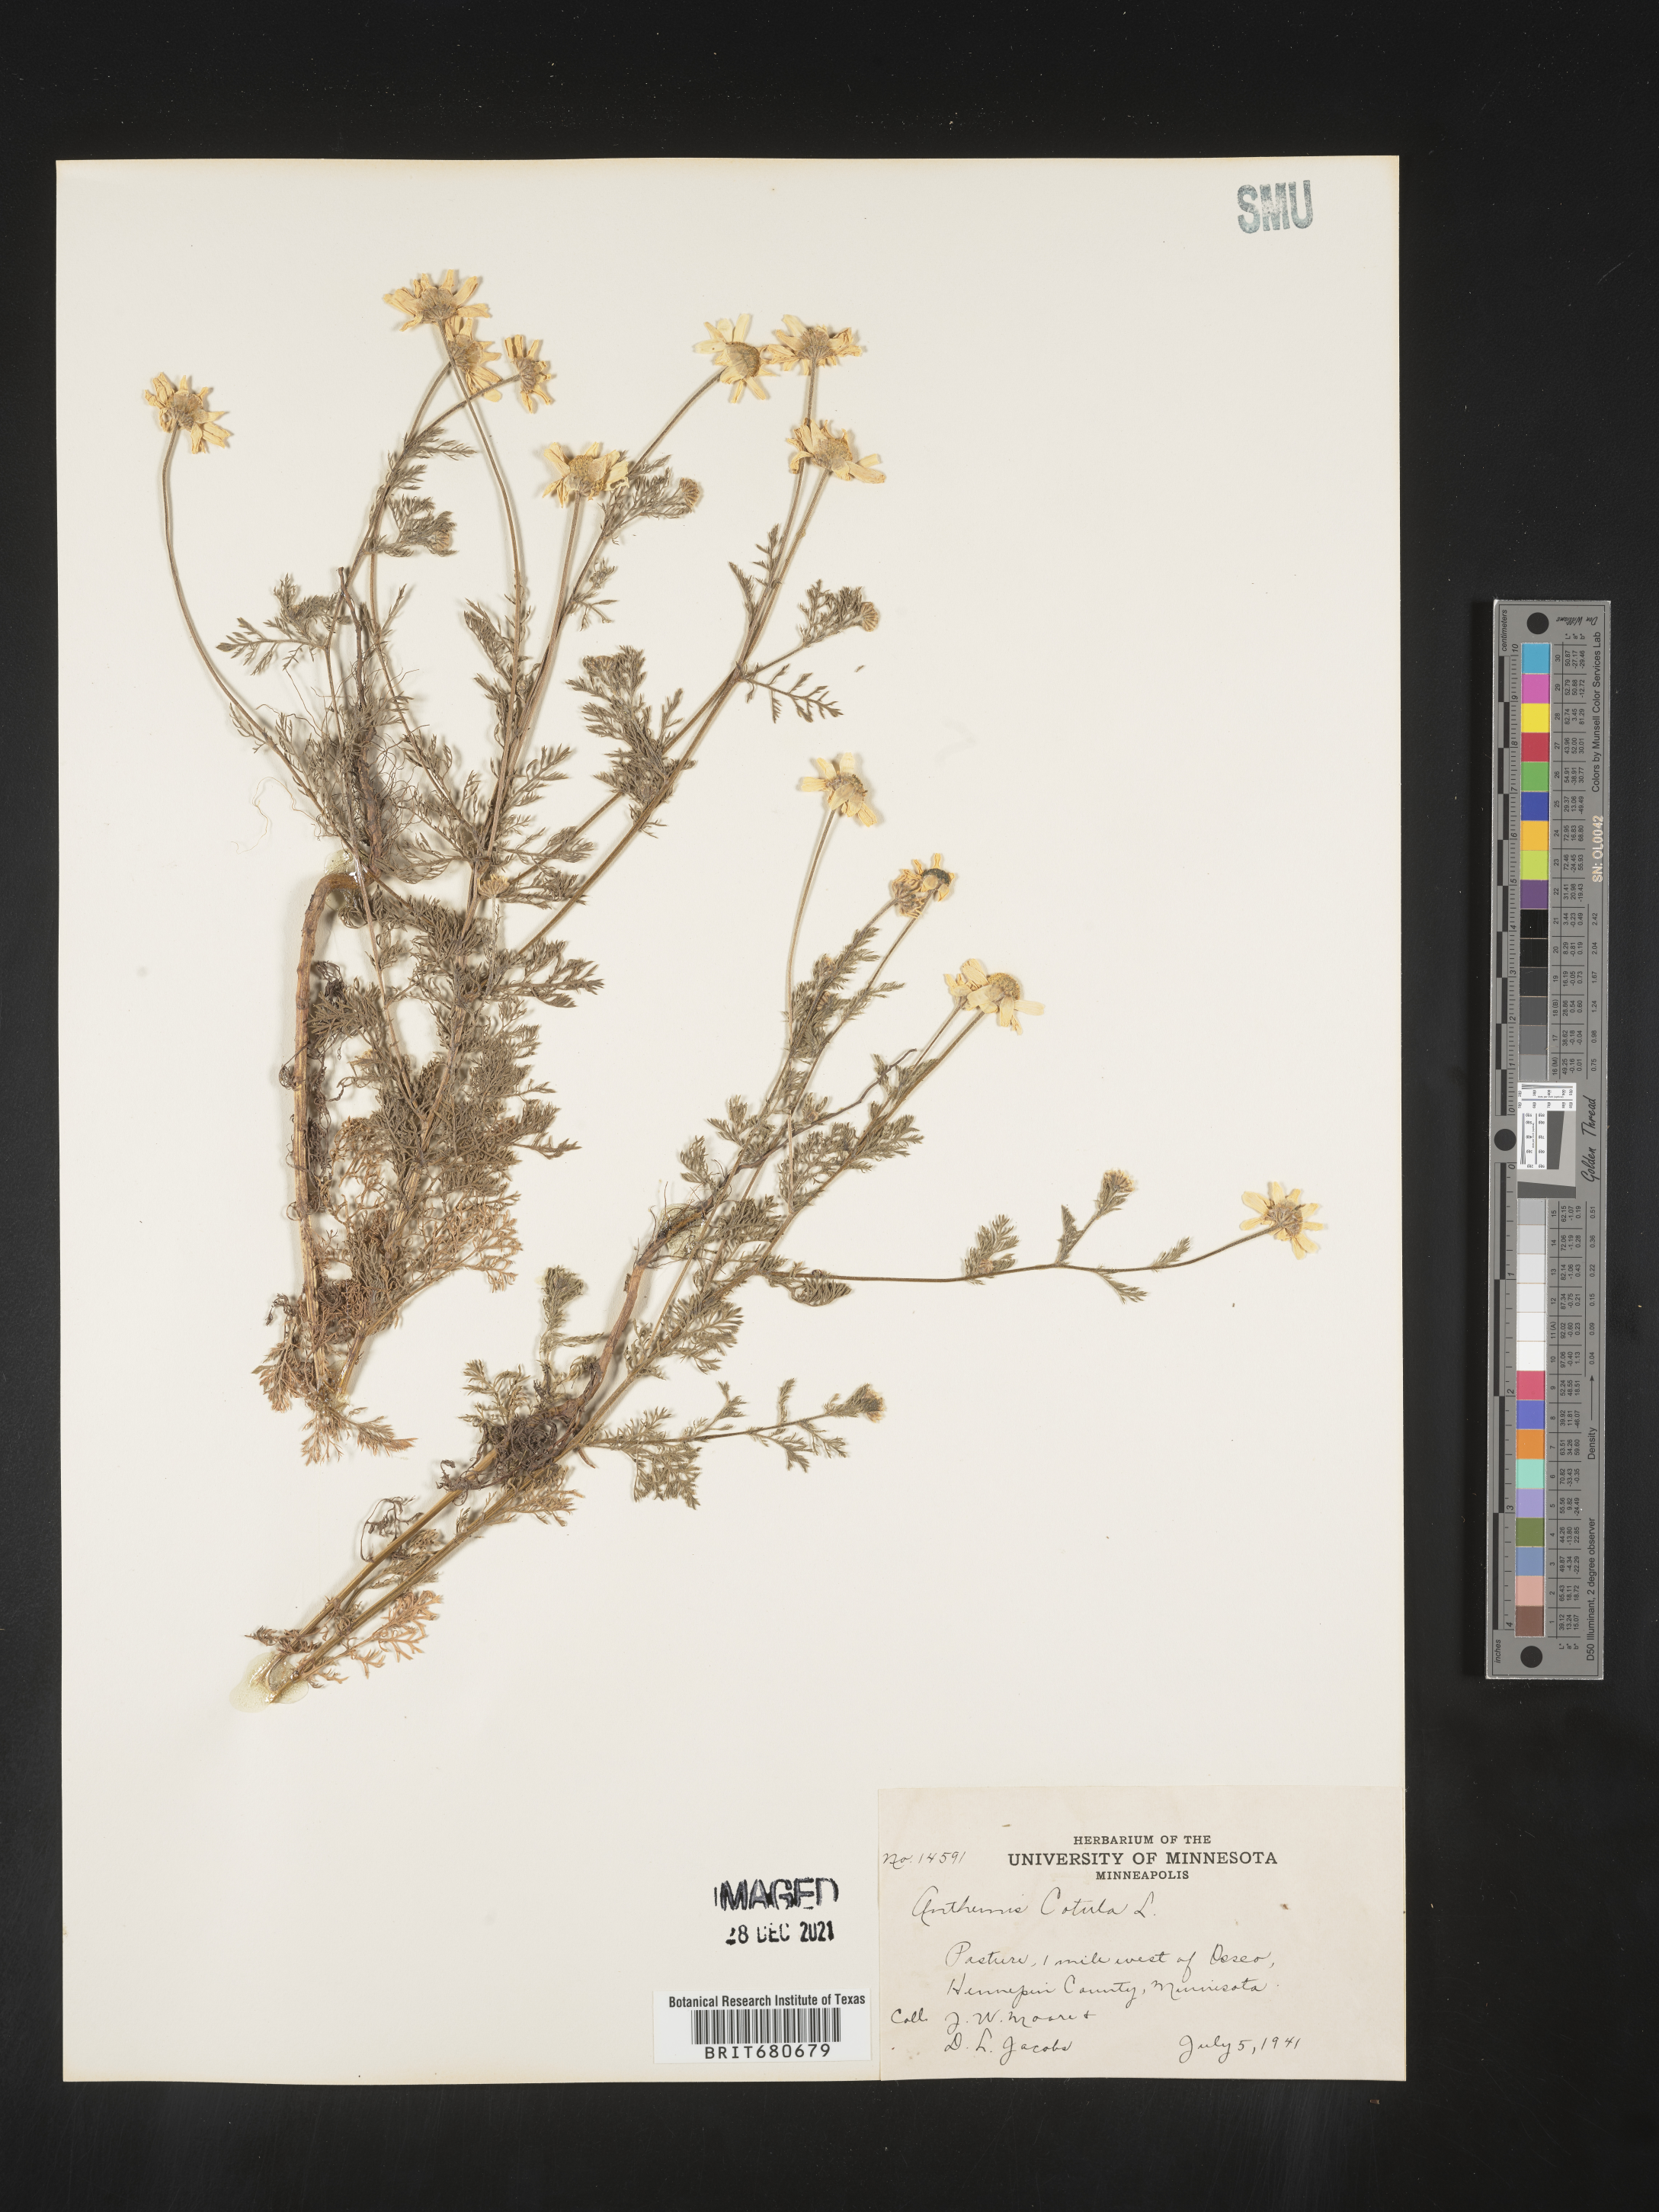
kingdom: Plantae
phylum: Tracheophyta
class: Magnoliopsida
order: Asterales
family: Asteraceae
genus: Anthemis
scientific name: Anthemis cotula
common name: Stinking chamomile
